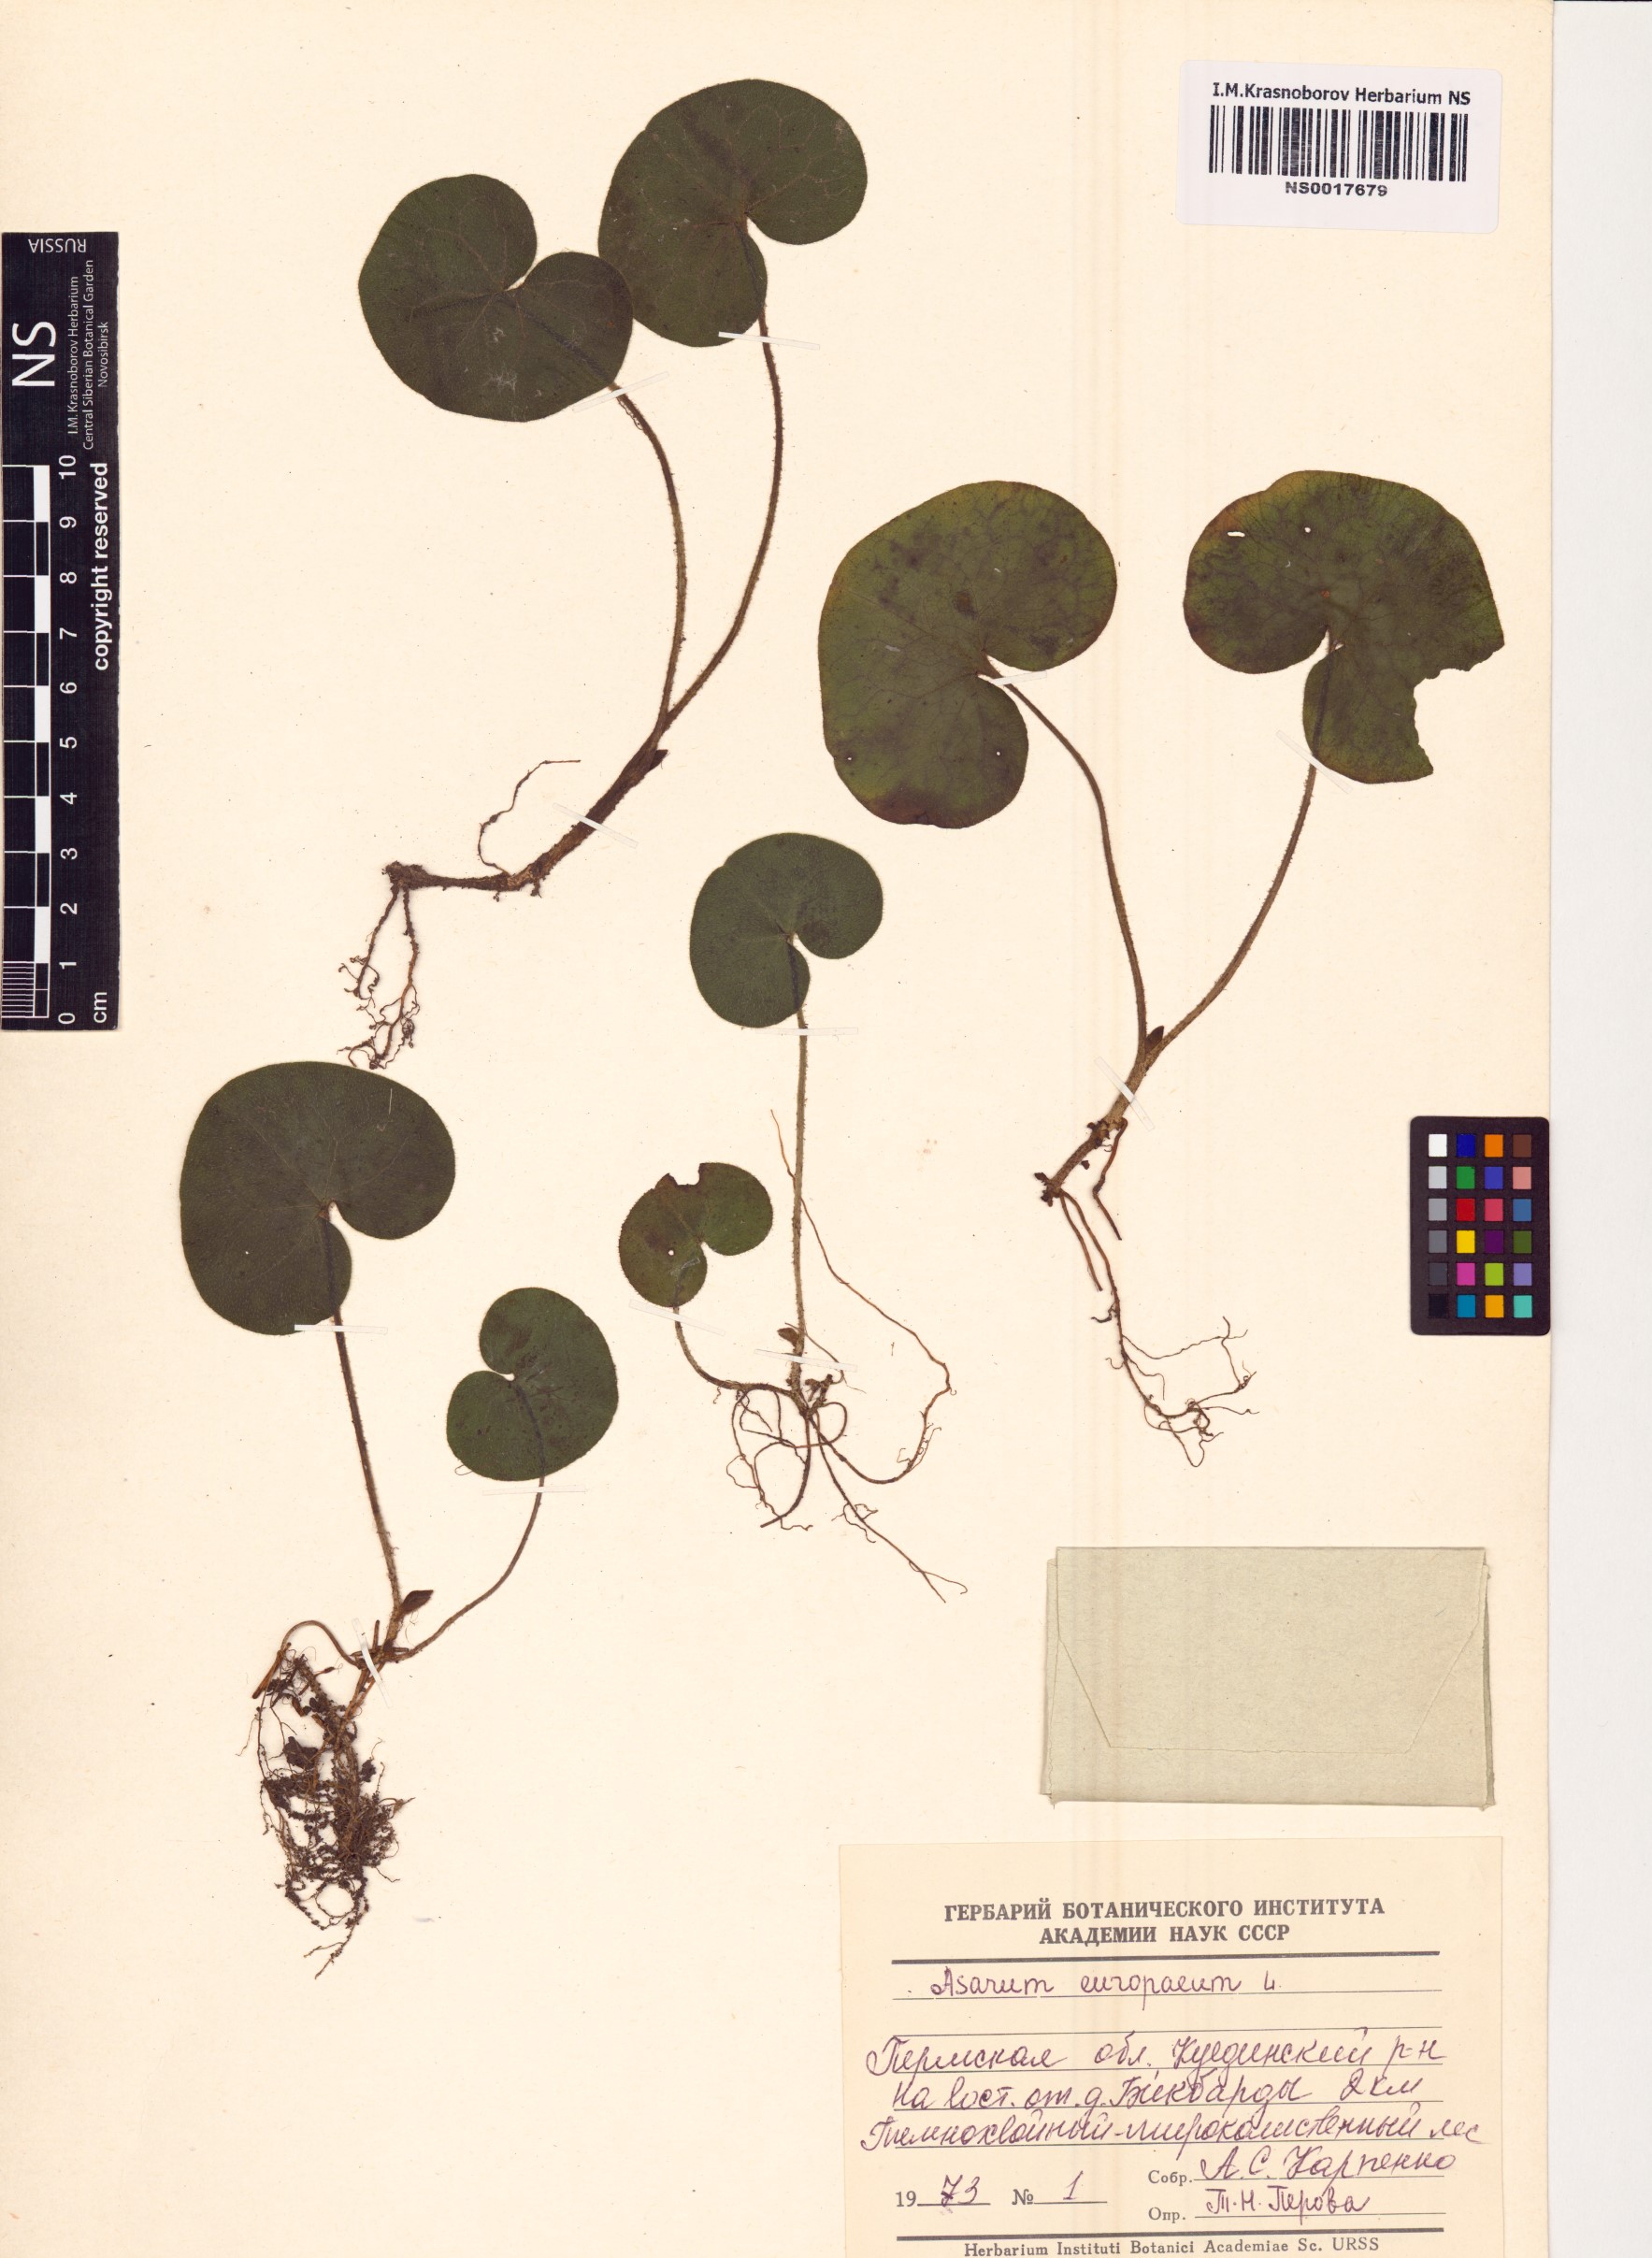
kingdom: Plantae
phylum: Tracheophyta
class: Magnoliopsida
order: Piperales
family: Aristolochiaceae
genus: Asarum
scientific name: Asarum europaeum
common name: Asarabacca
